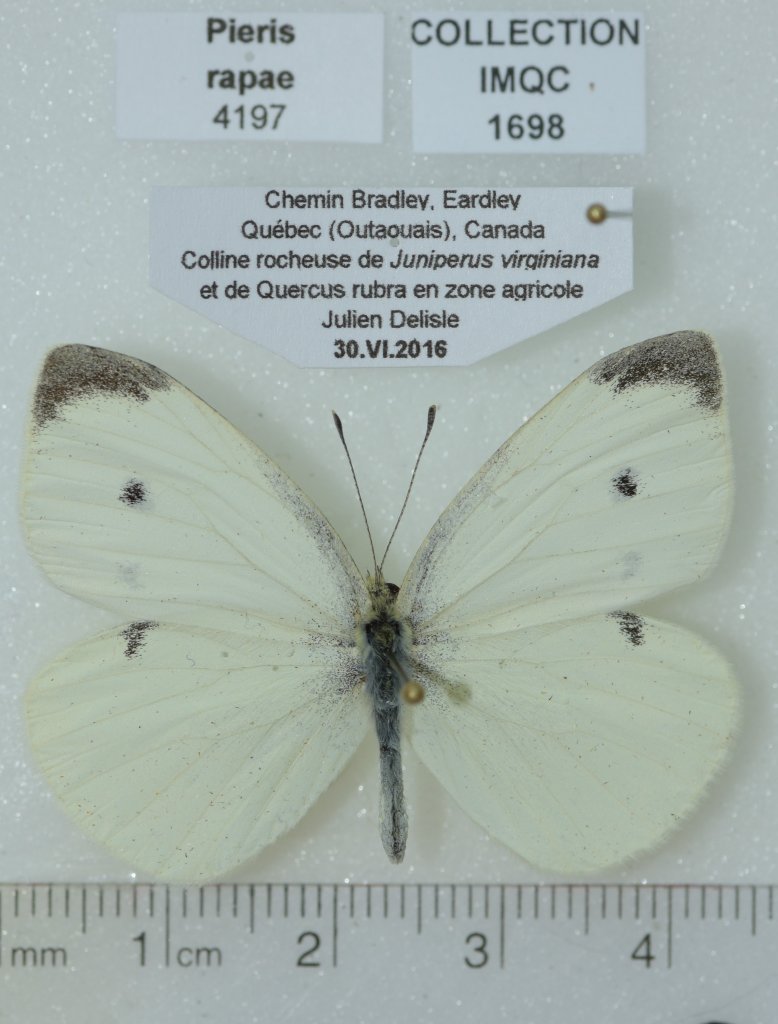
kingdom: Animalia
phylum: Arthropoda
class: Insecta
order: Lepidoptera
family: Pieridae
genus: Pieris
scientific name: Pieris rapae
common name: Cabbage White
